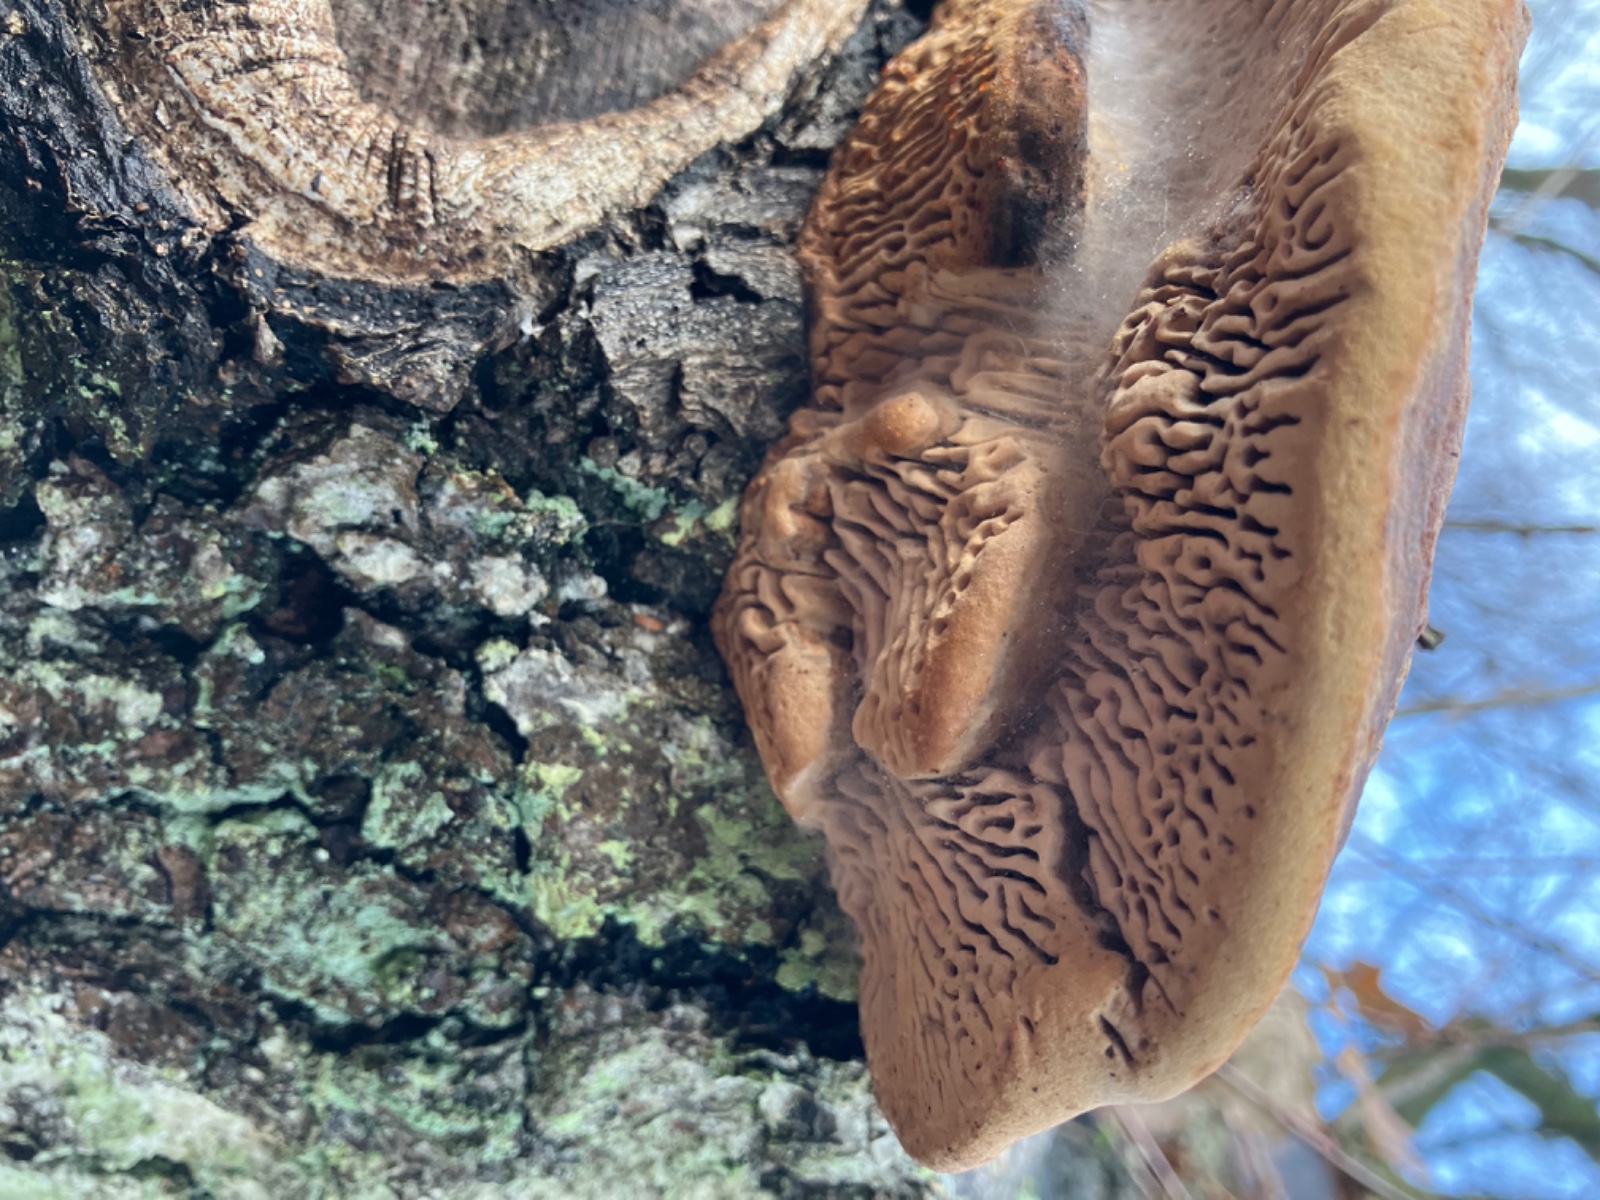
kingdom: Fungi
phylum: Basidiomycota
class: Agaricomycetes
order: Polyporales
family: Fomitopsidaceae
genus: Daedalea
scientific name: Daedalea quercina
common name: ege-labyrintsvamp
